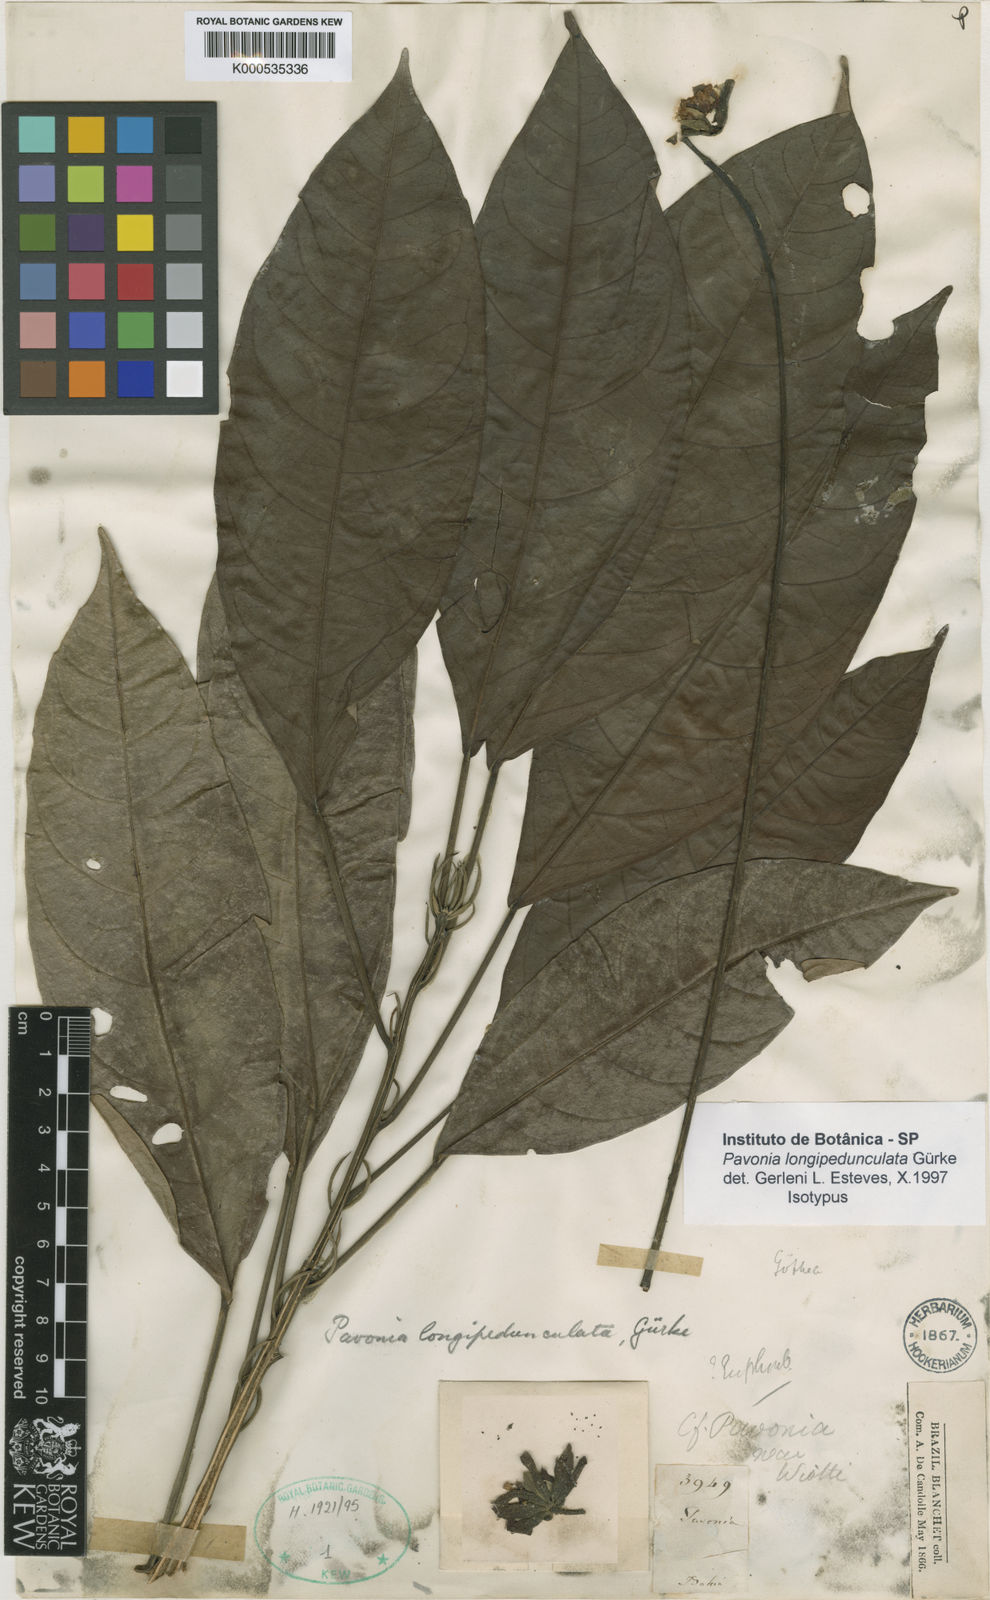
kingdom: Plantae
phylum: Tracheophyta
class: Magnoliopsida
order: Malvales
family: Malvaceae
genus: Pavonia
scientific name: Pavonia
